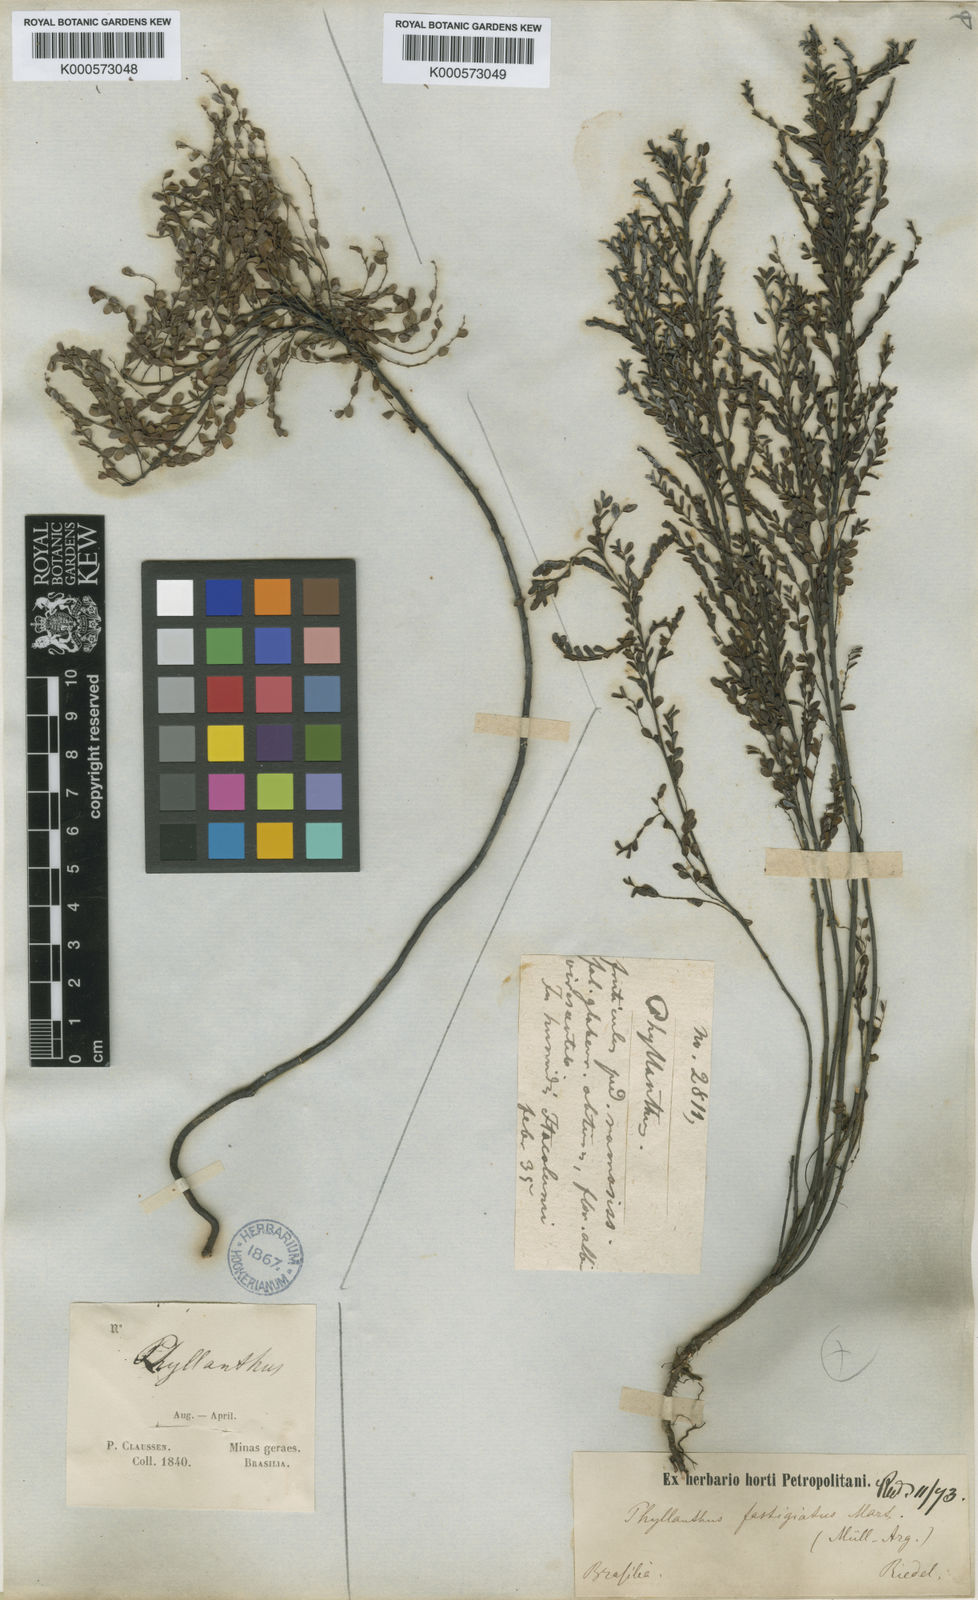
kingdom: Plantae
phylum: Tracheophyta
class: Magnoliopsida
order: Malpighiales
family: Phyllanthaceae
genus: Phyllanthus
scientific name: Phyllanthus
